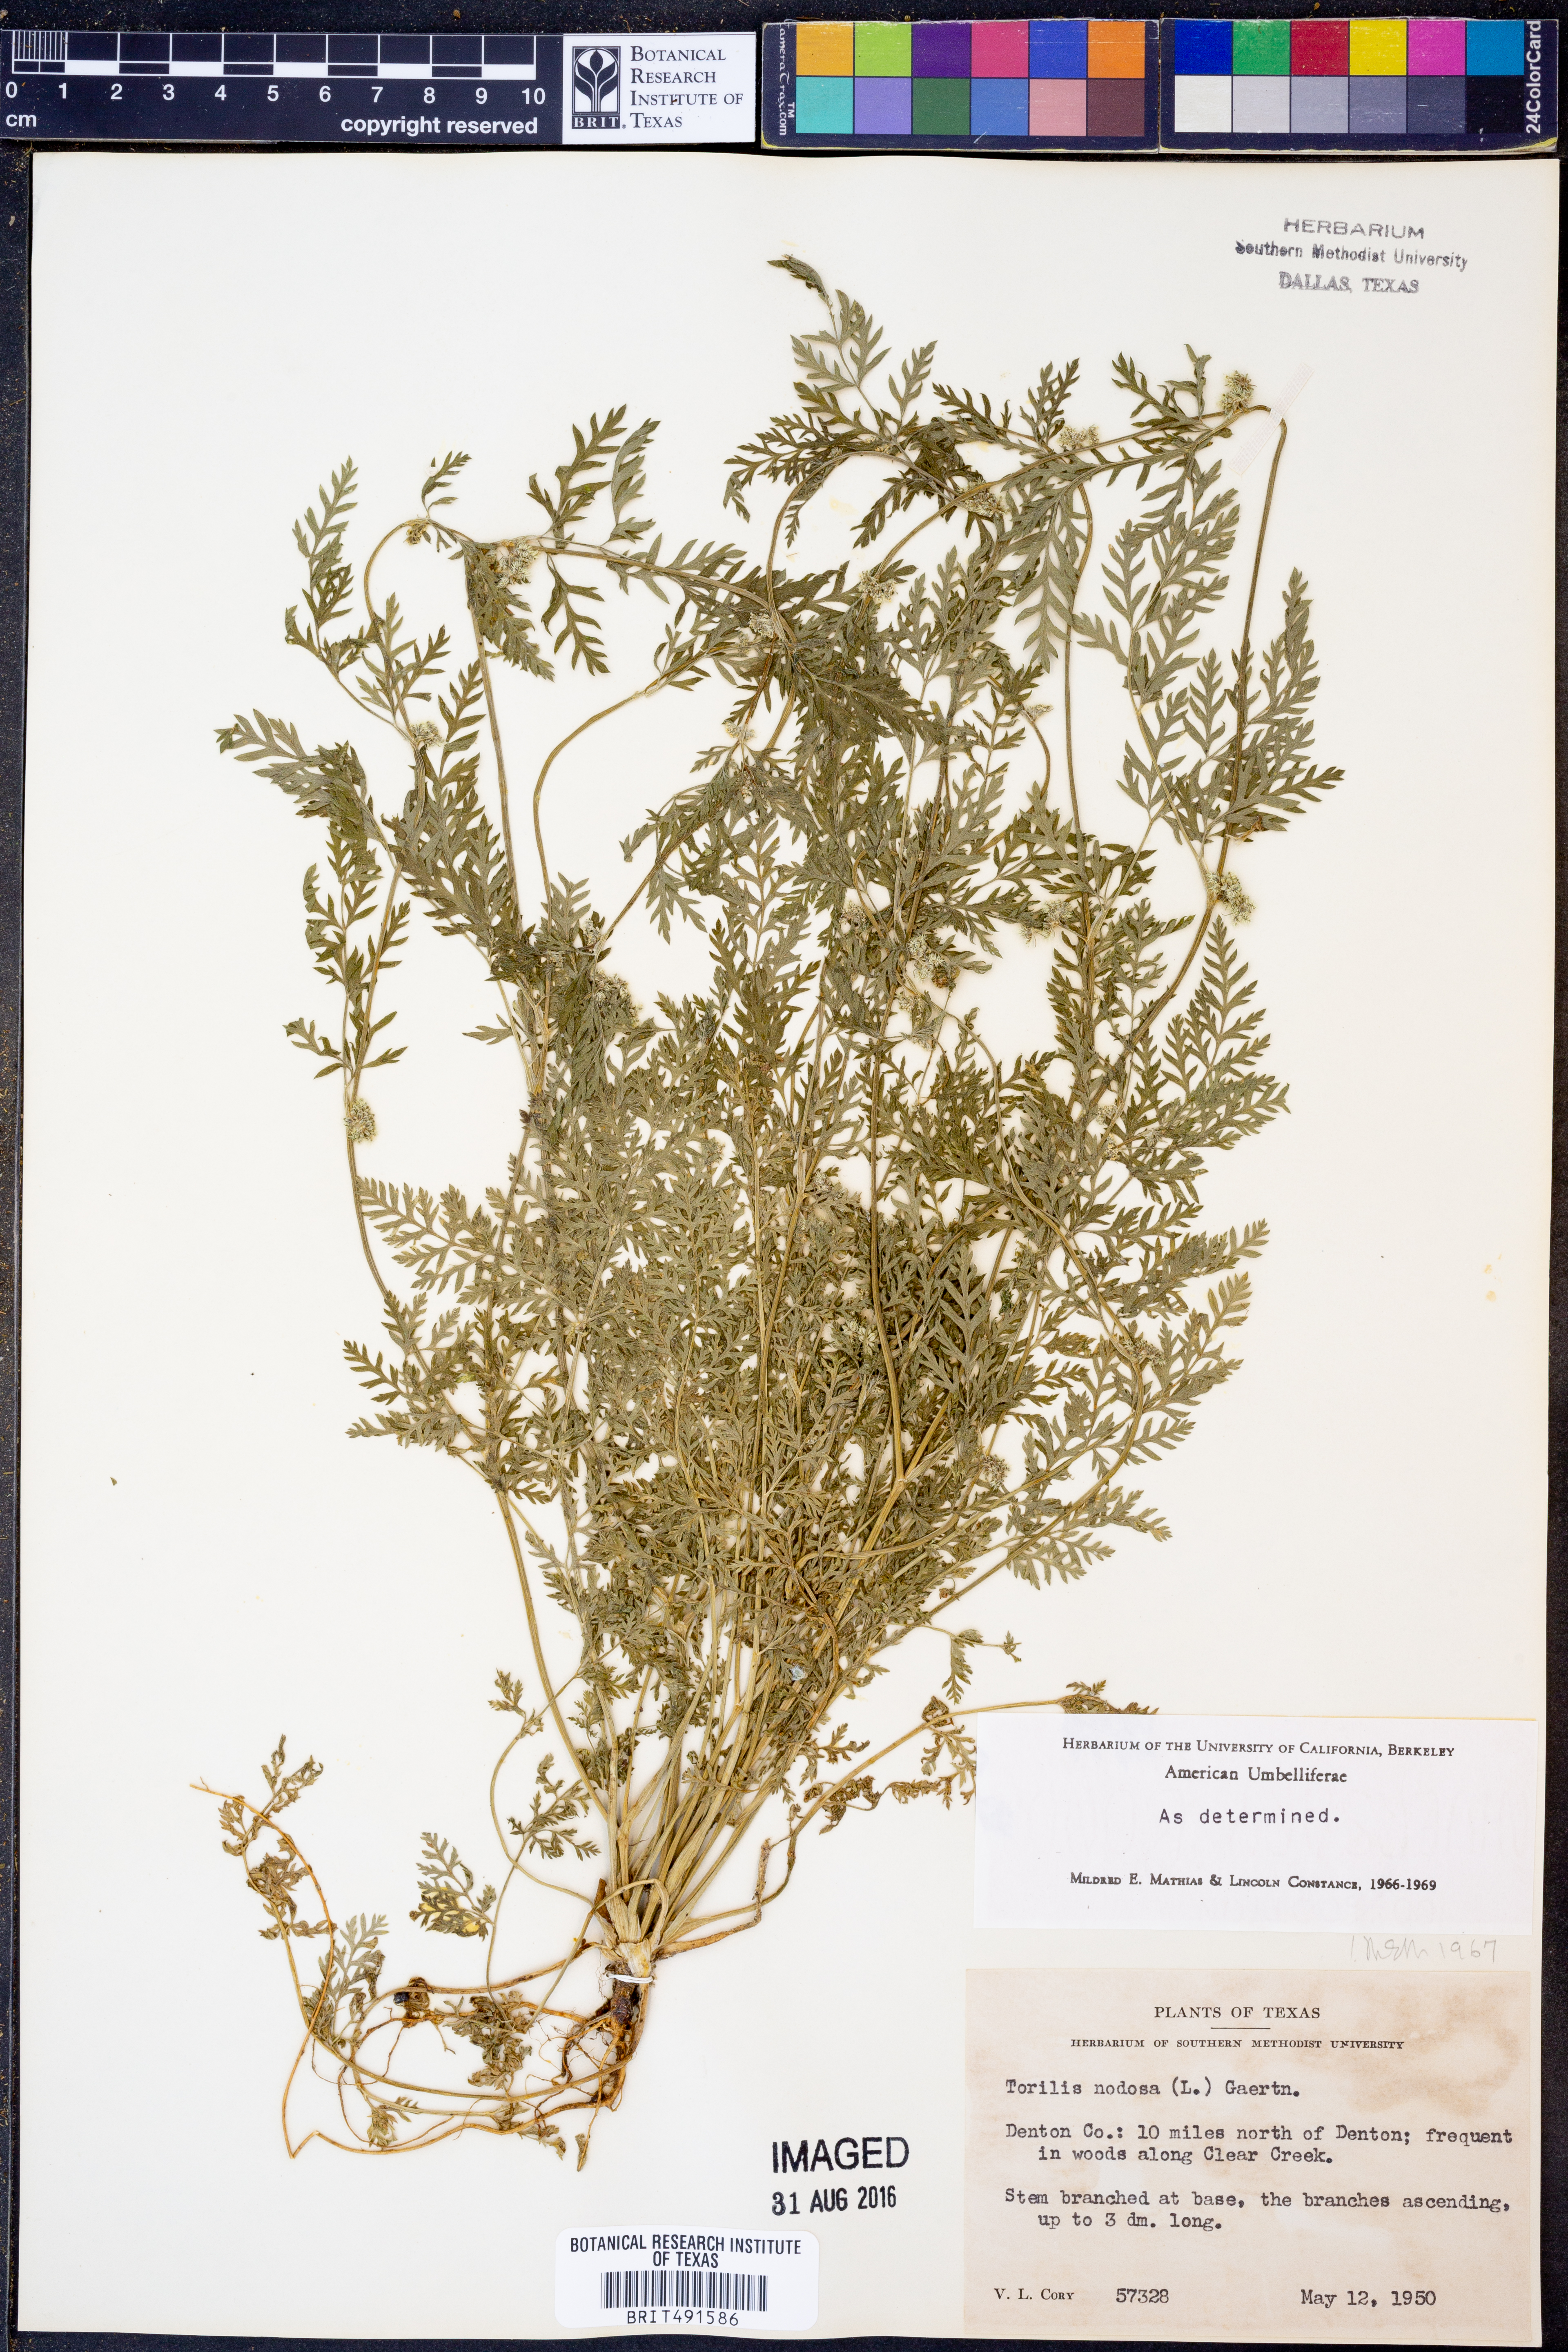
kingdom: Plantae
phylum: Tracheophyta
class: Magnoliopsida
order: Apiales
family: Apiaceae
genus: Torilis
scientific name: Torilis nodosa
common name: Knotted hedge-parsley
